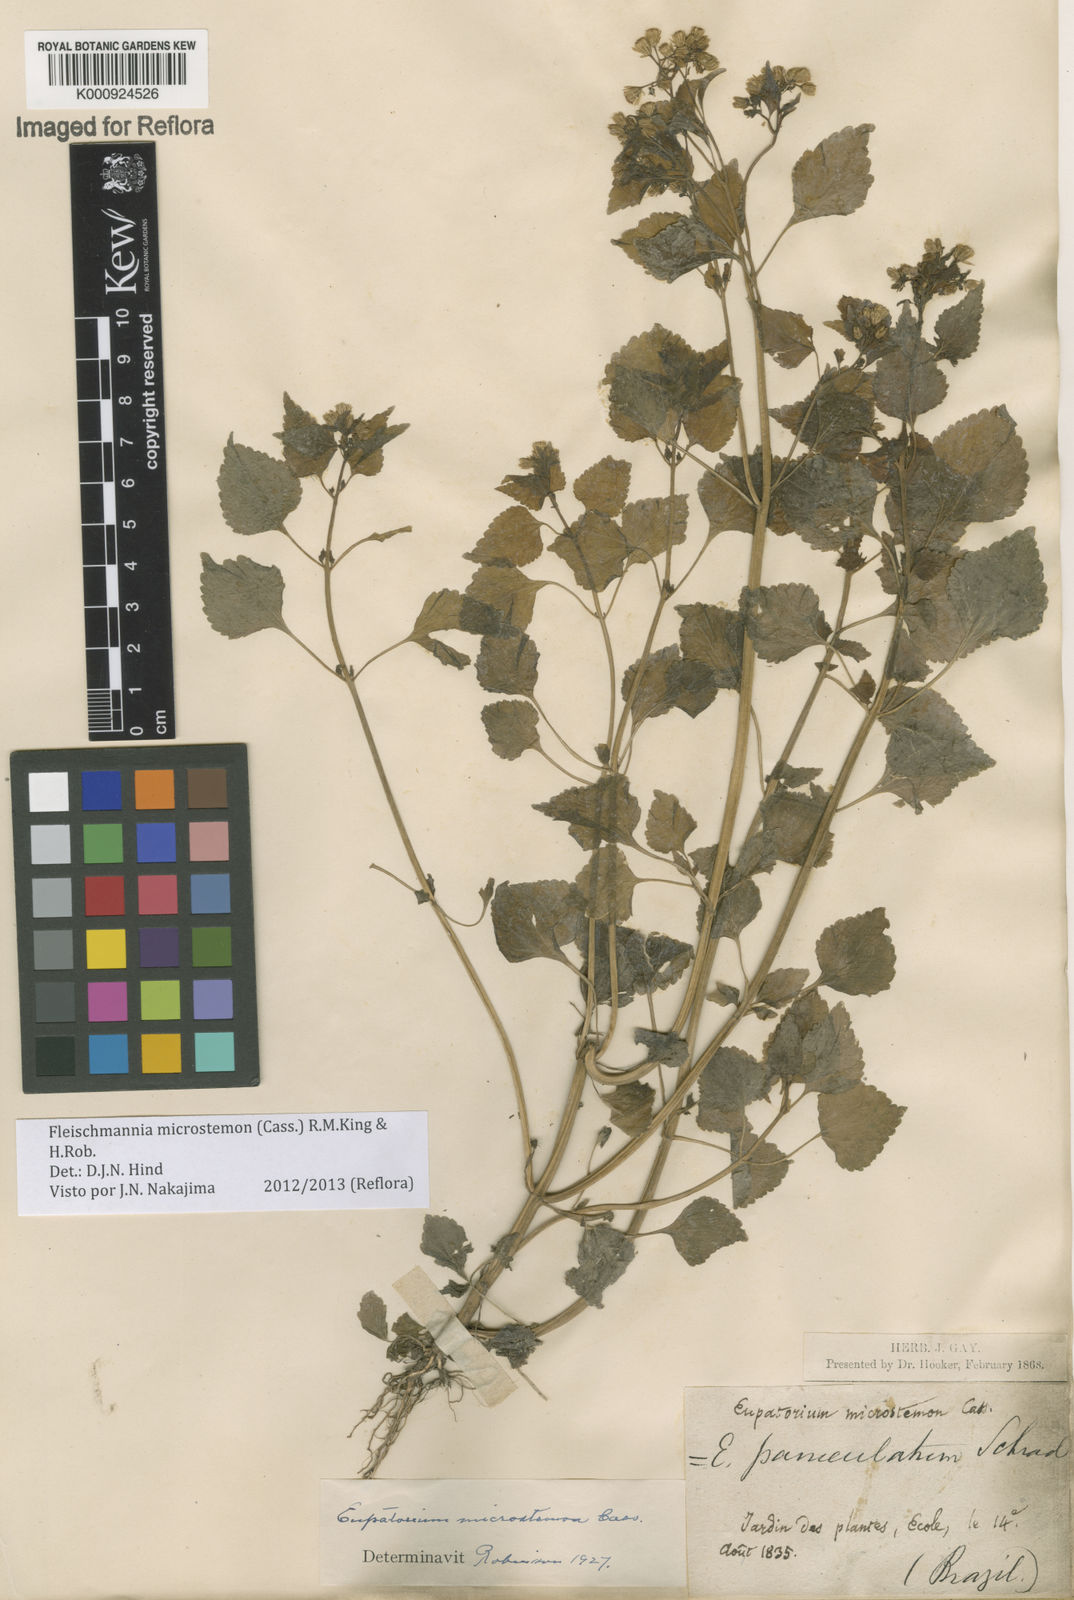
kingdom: Plantae
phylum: Tracheophyta
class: Magnoliopsida
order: Asterales
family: Asteraceae
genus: Fleischmannia
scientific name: Fleischmannia microstemon
